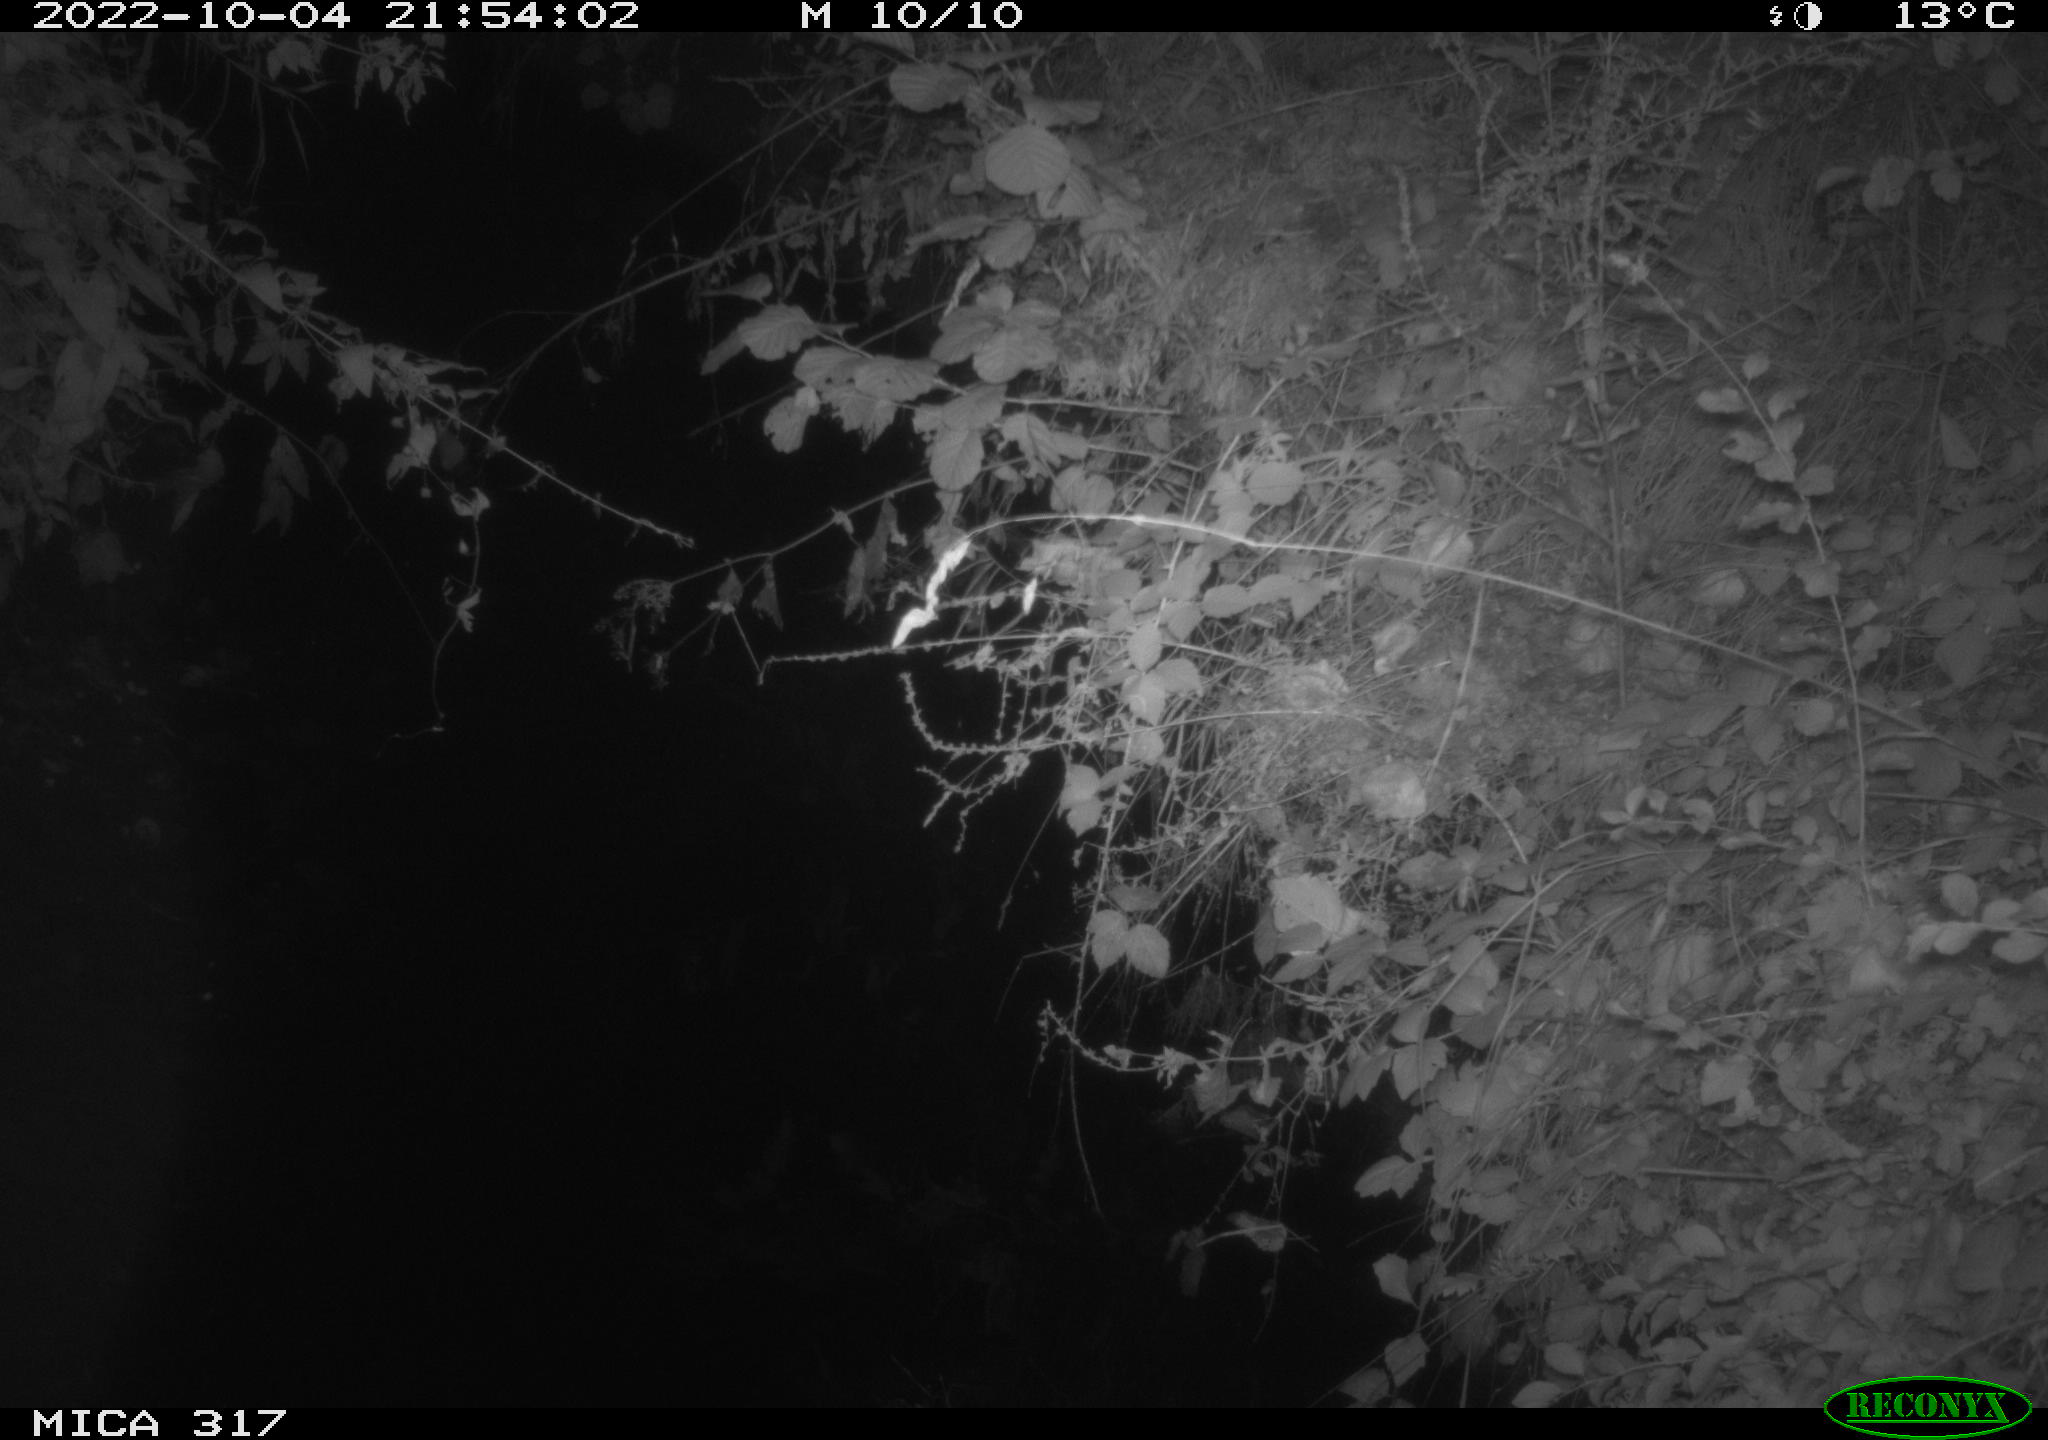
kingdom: Animalia
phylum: Chordata
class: Aves
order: Anseriformes
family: Anatidae
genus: Anas
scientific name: Anas
